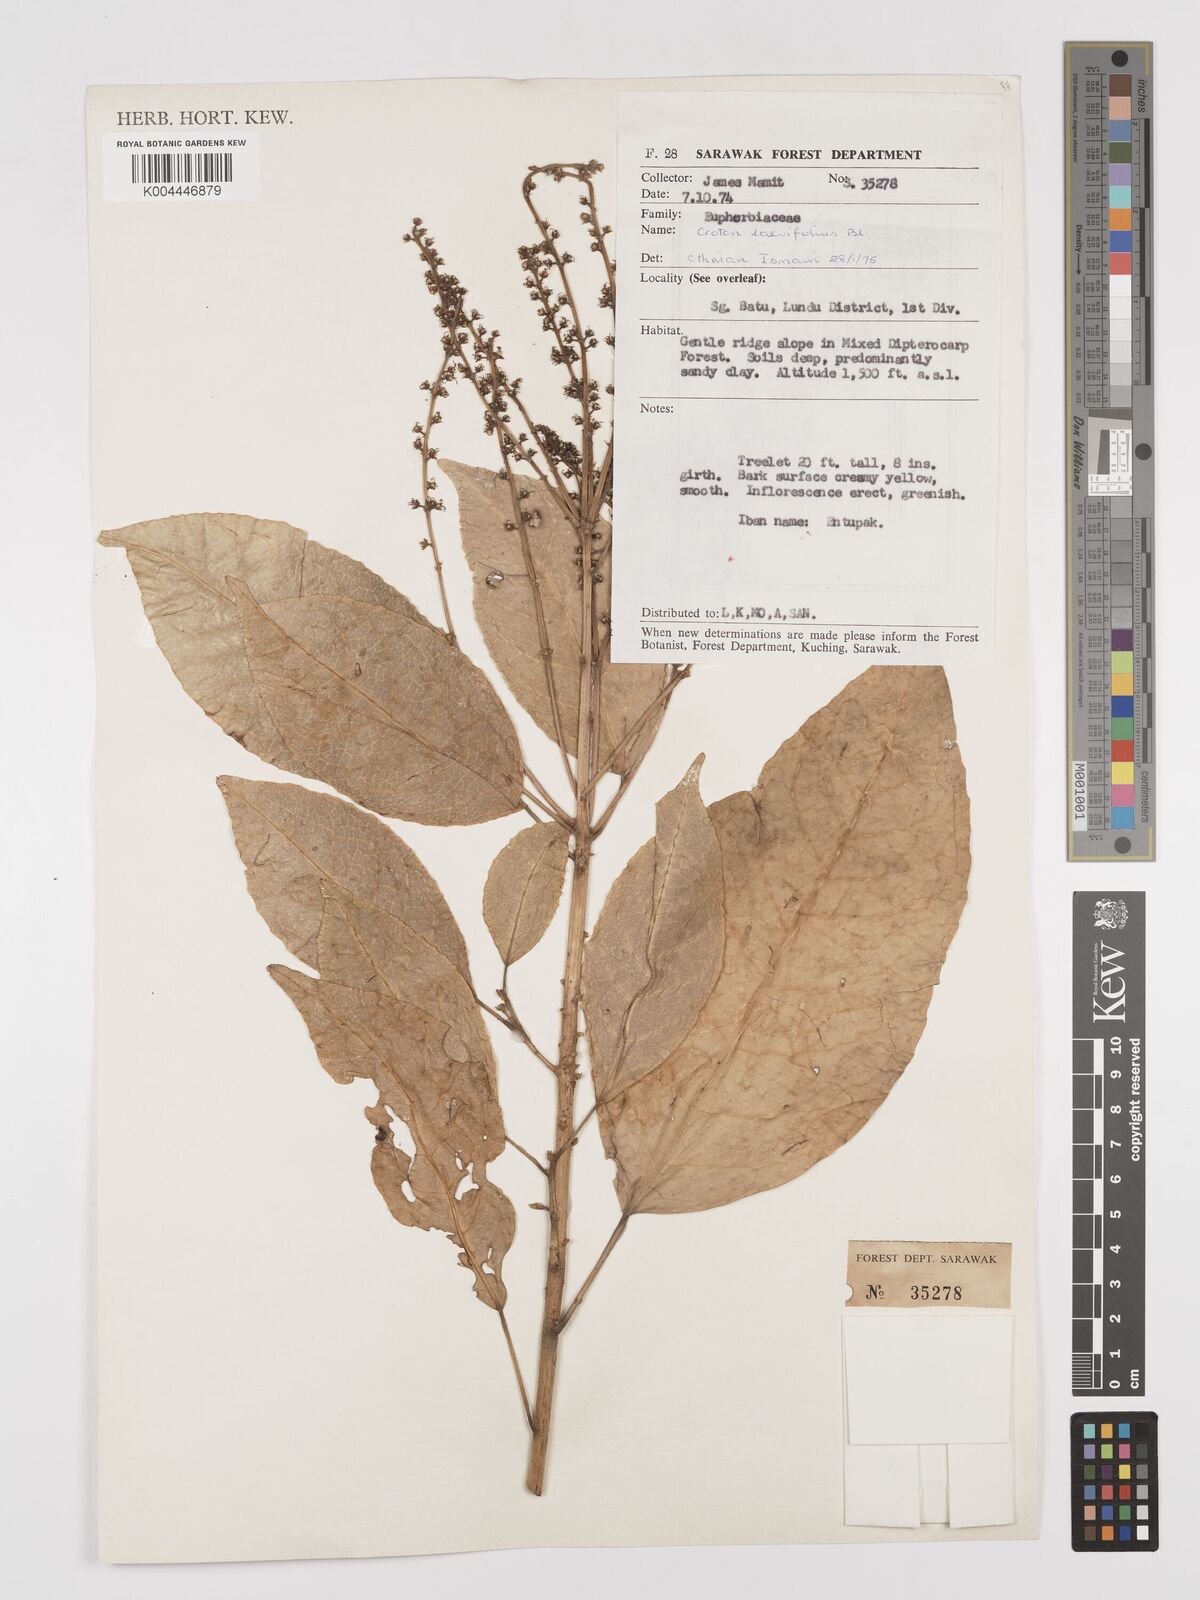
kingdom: Plantae
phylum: Tracheophyta
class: Magnoliopsida
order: Malpighiales
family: Euphorbiaceae
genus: Croton
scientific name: Croton oblongus
